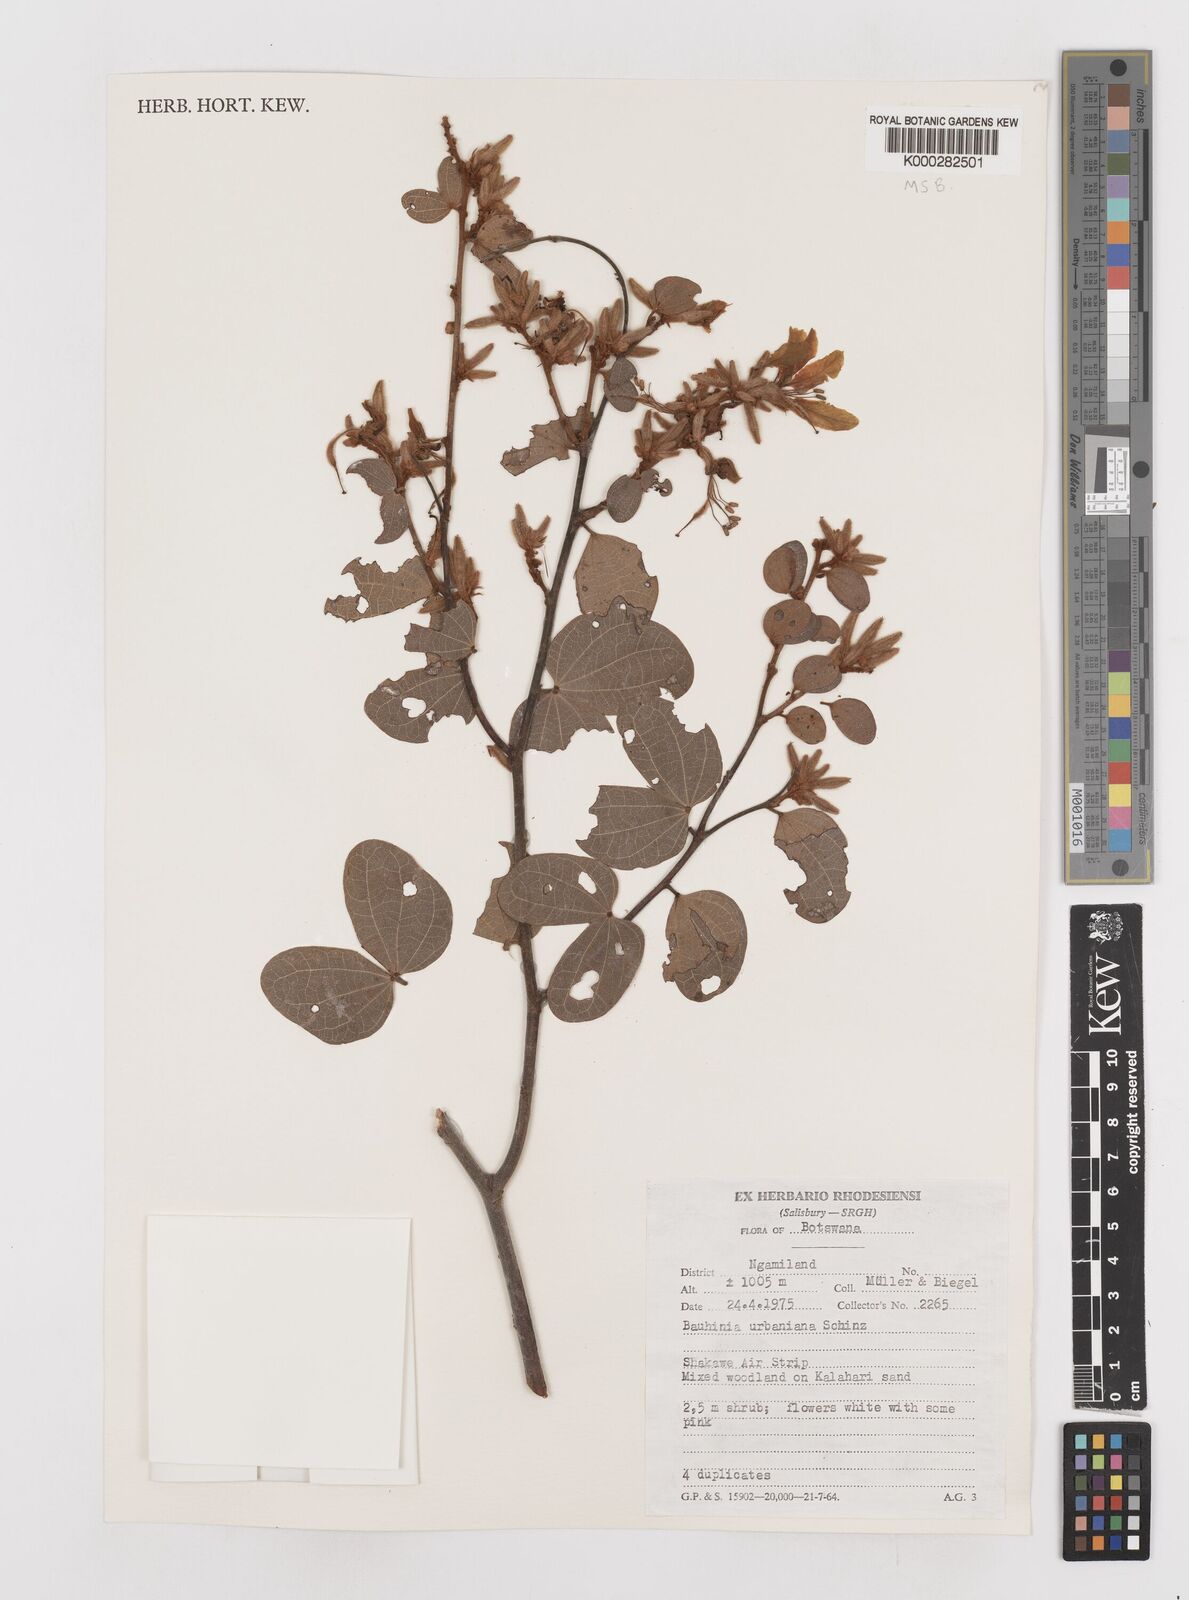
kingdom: Plantae
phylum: Tracheophyta
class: Magnoliopsida
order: Fabales
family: Fabaceae
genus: Bauhinia
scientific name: Bauhinia urbaniana
